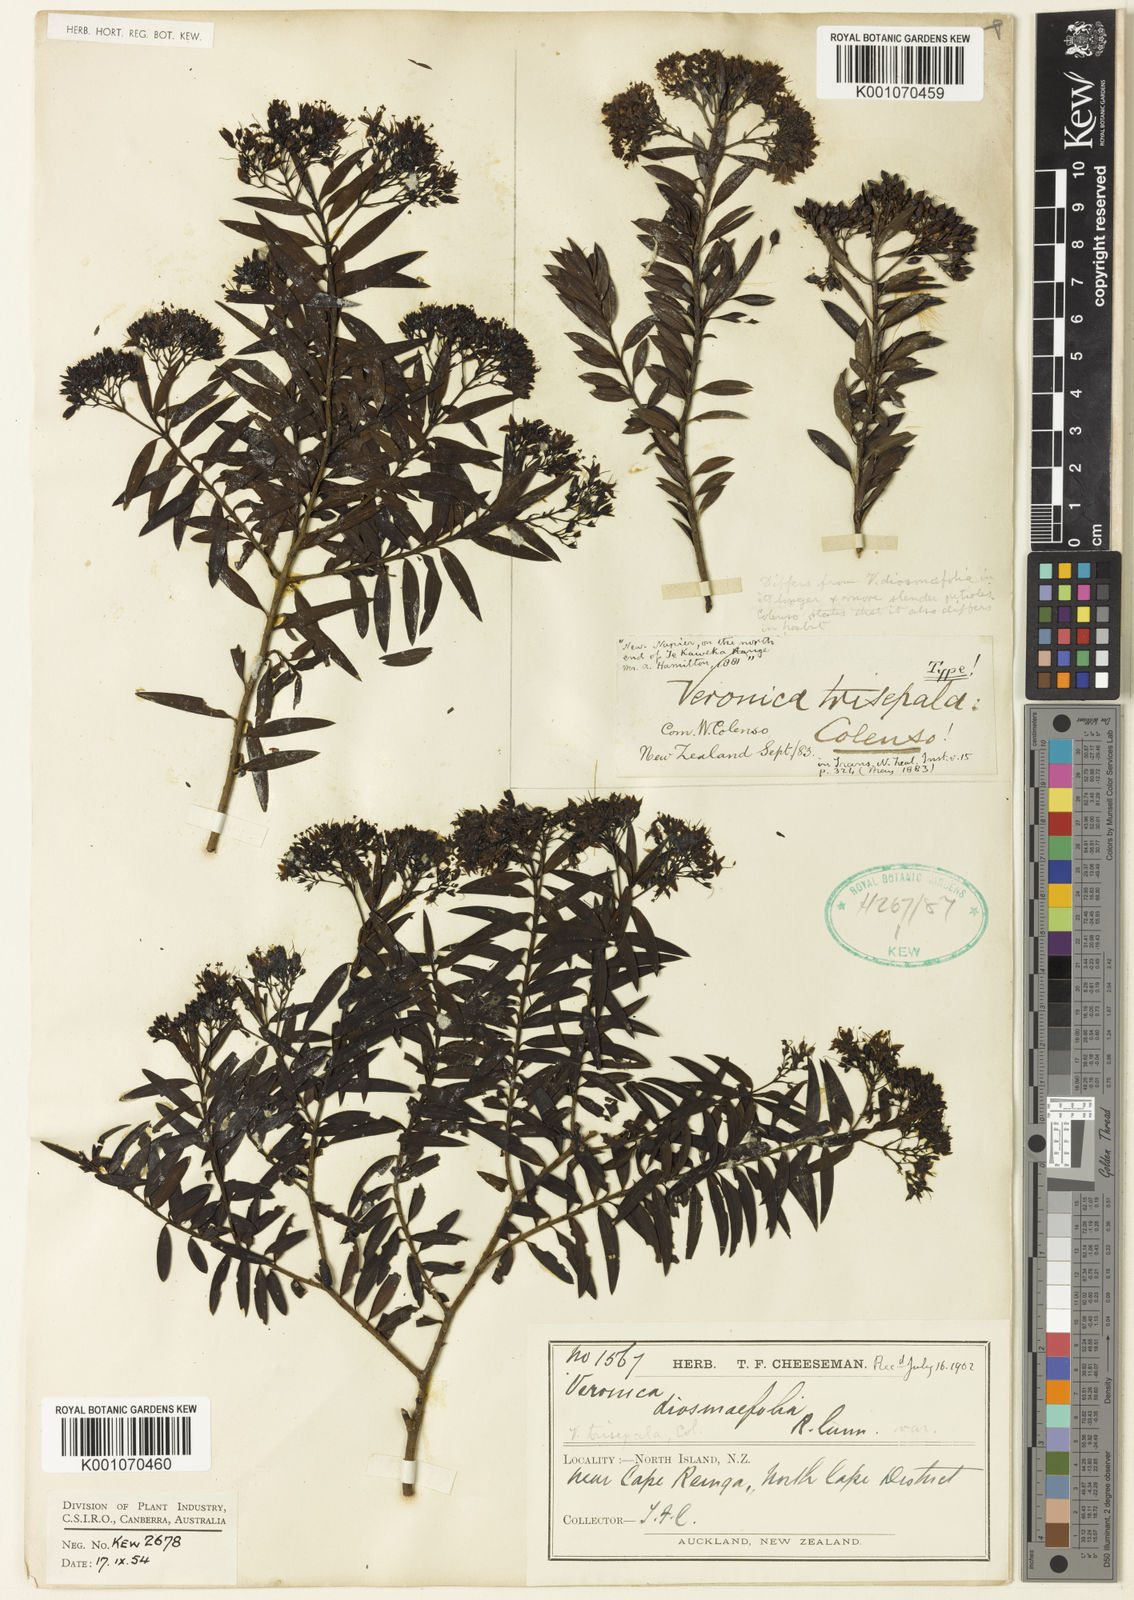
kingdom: Plantae
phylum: Tracheophyta
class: Magnoliopsida
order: Lamiales
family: Plantaginaceae
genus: Veronica
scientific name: Veronica
